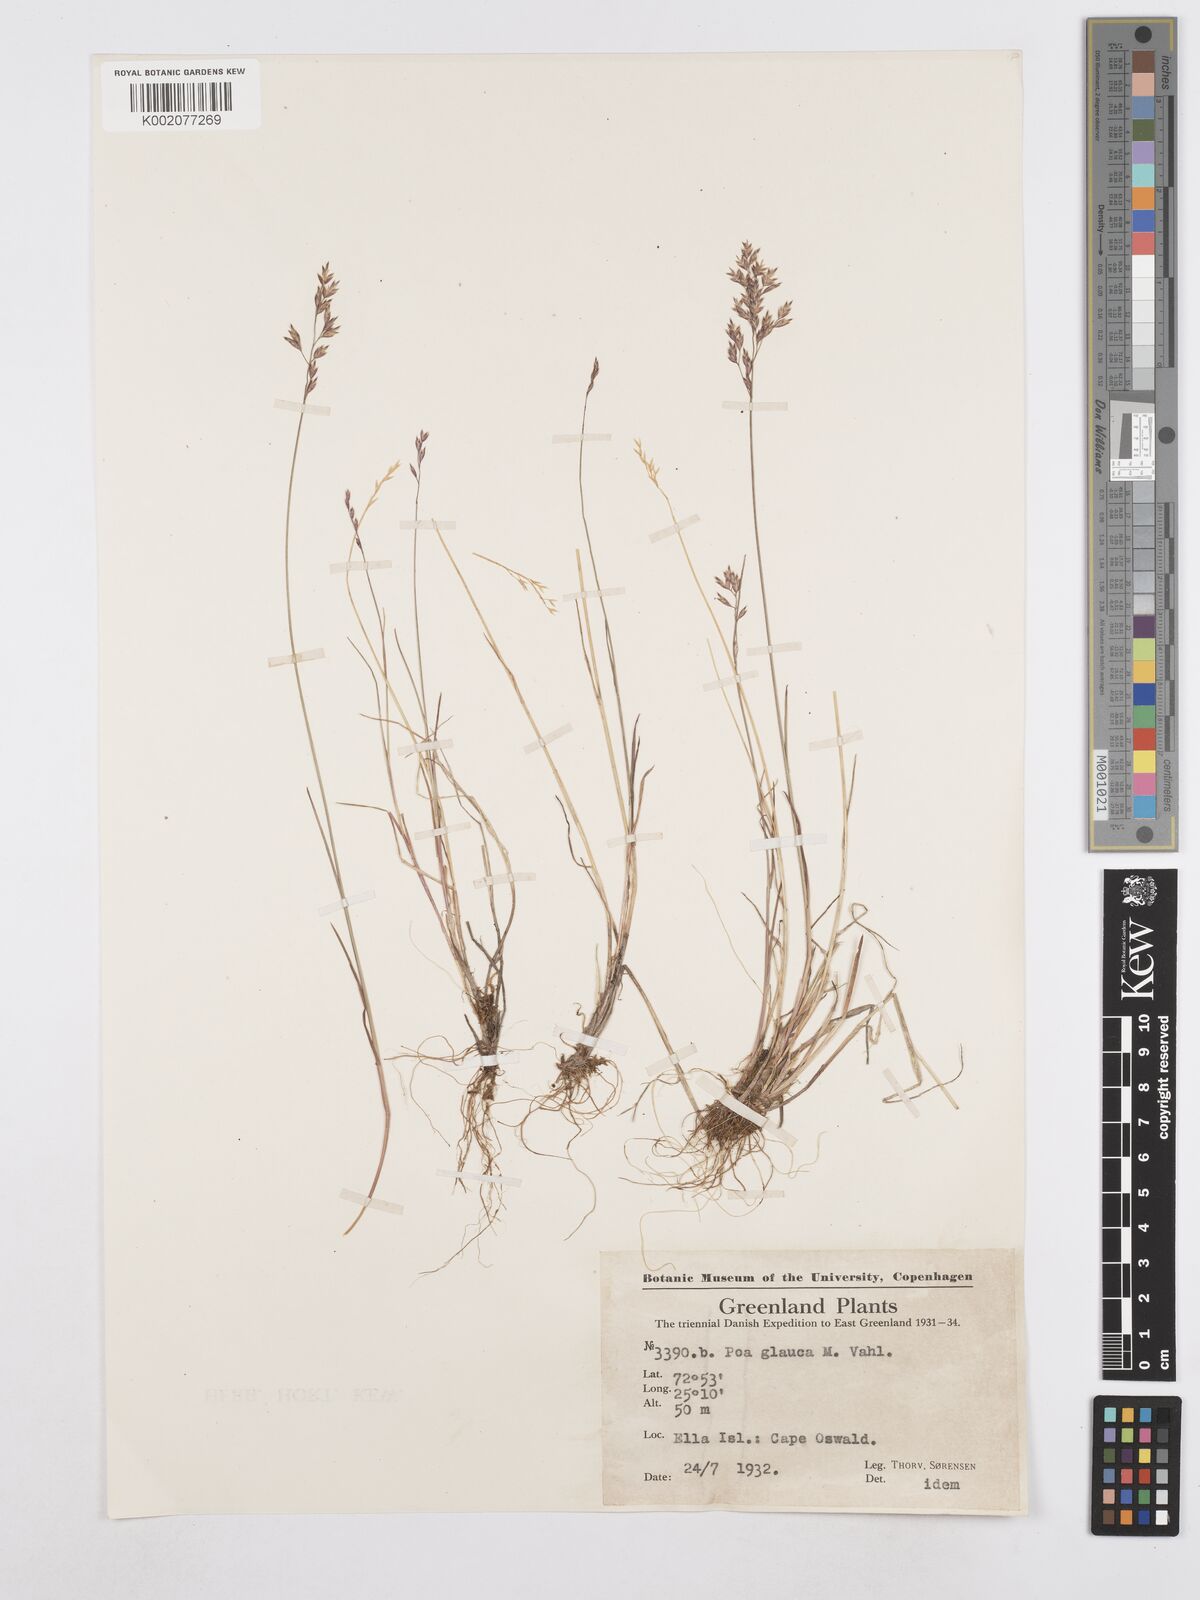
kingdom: Plantae
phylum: Tracheophyta
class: Liliopsida
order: Poales
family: Poaceae
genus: Poa
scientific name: Poa glauca
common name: Glaucous bluegrass
